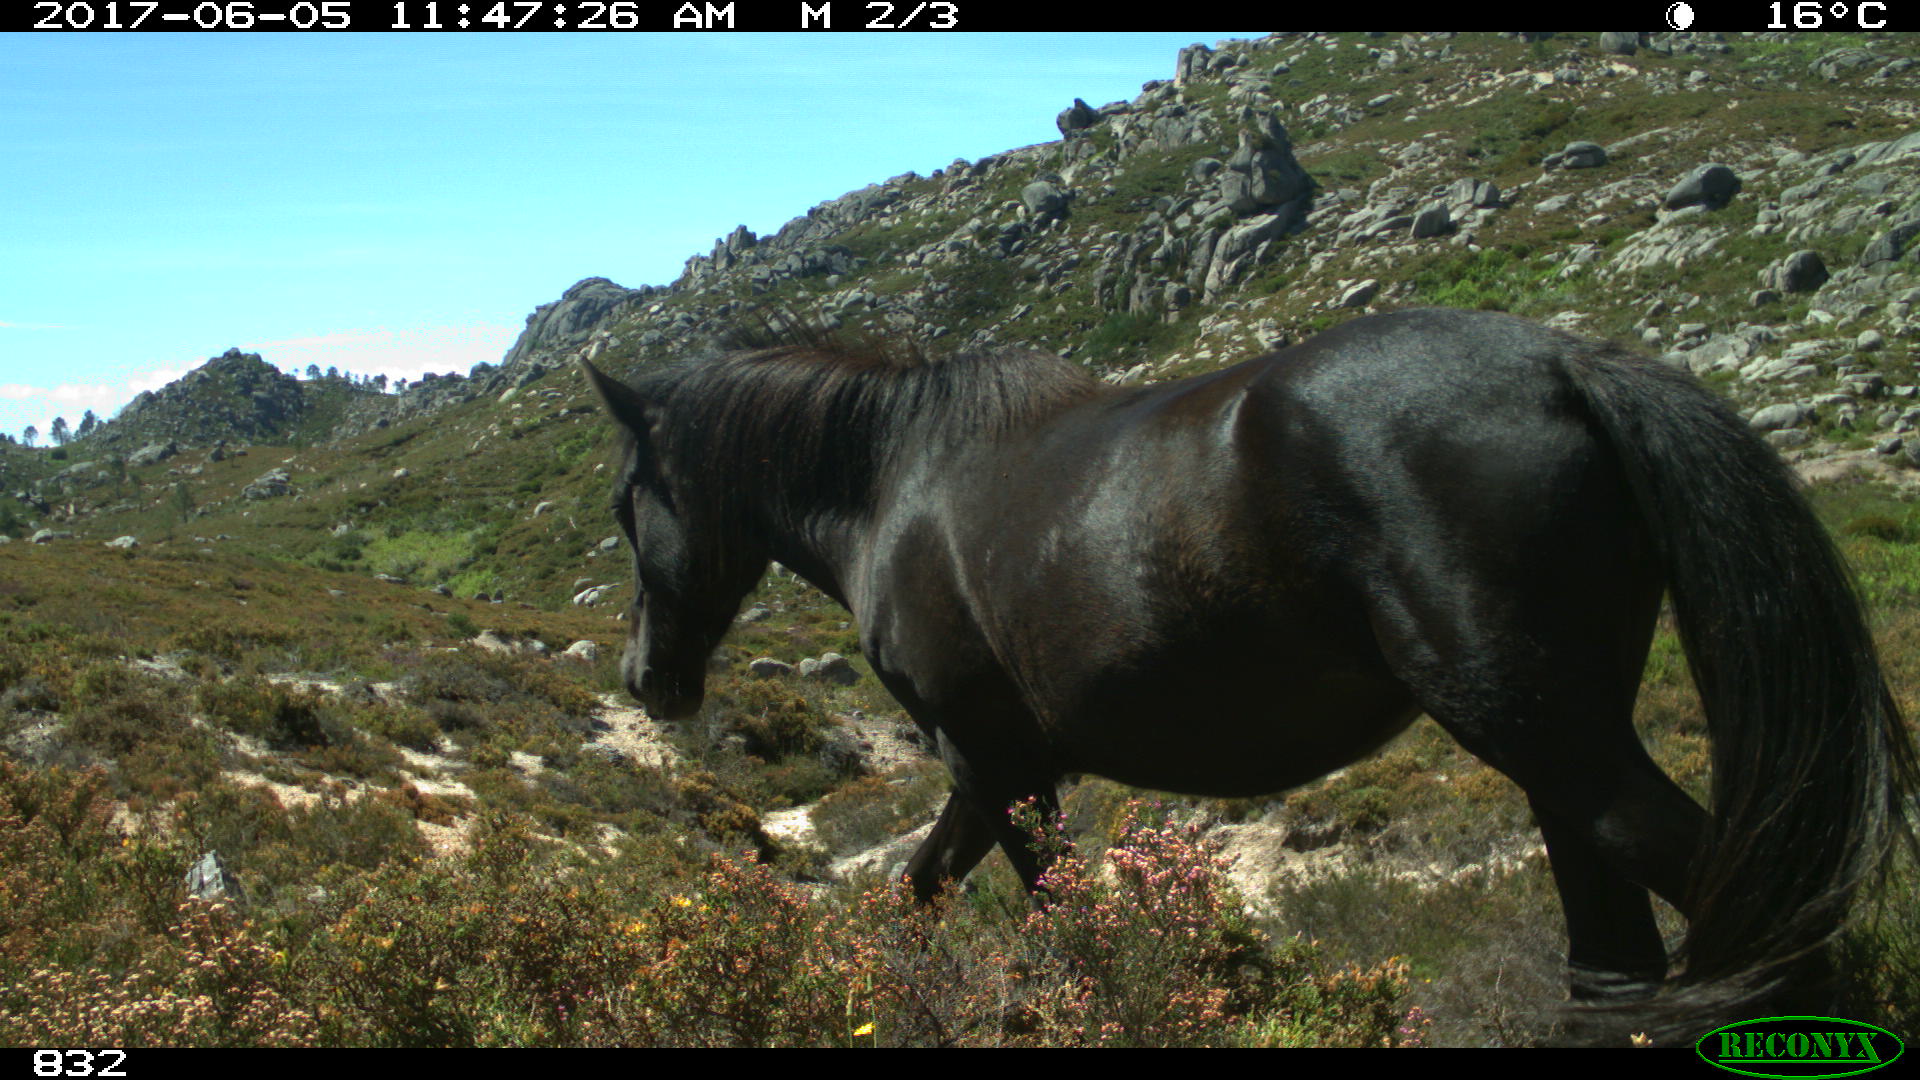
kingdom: Animalia
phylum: Chordata
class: Mammalia
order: Perissodactyla
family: Equidae
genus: Equus
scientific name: Equus caballus
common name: Horse
